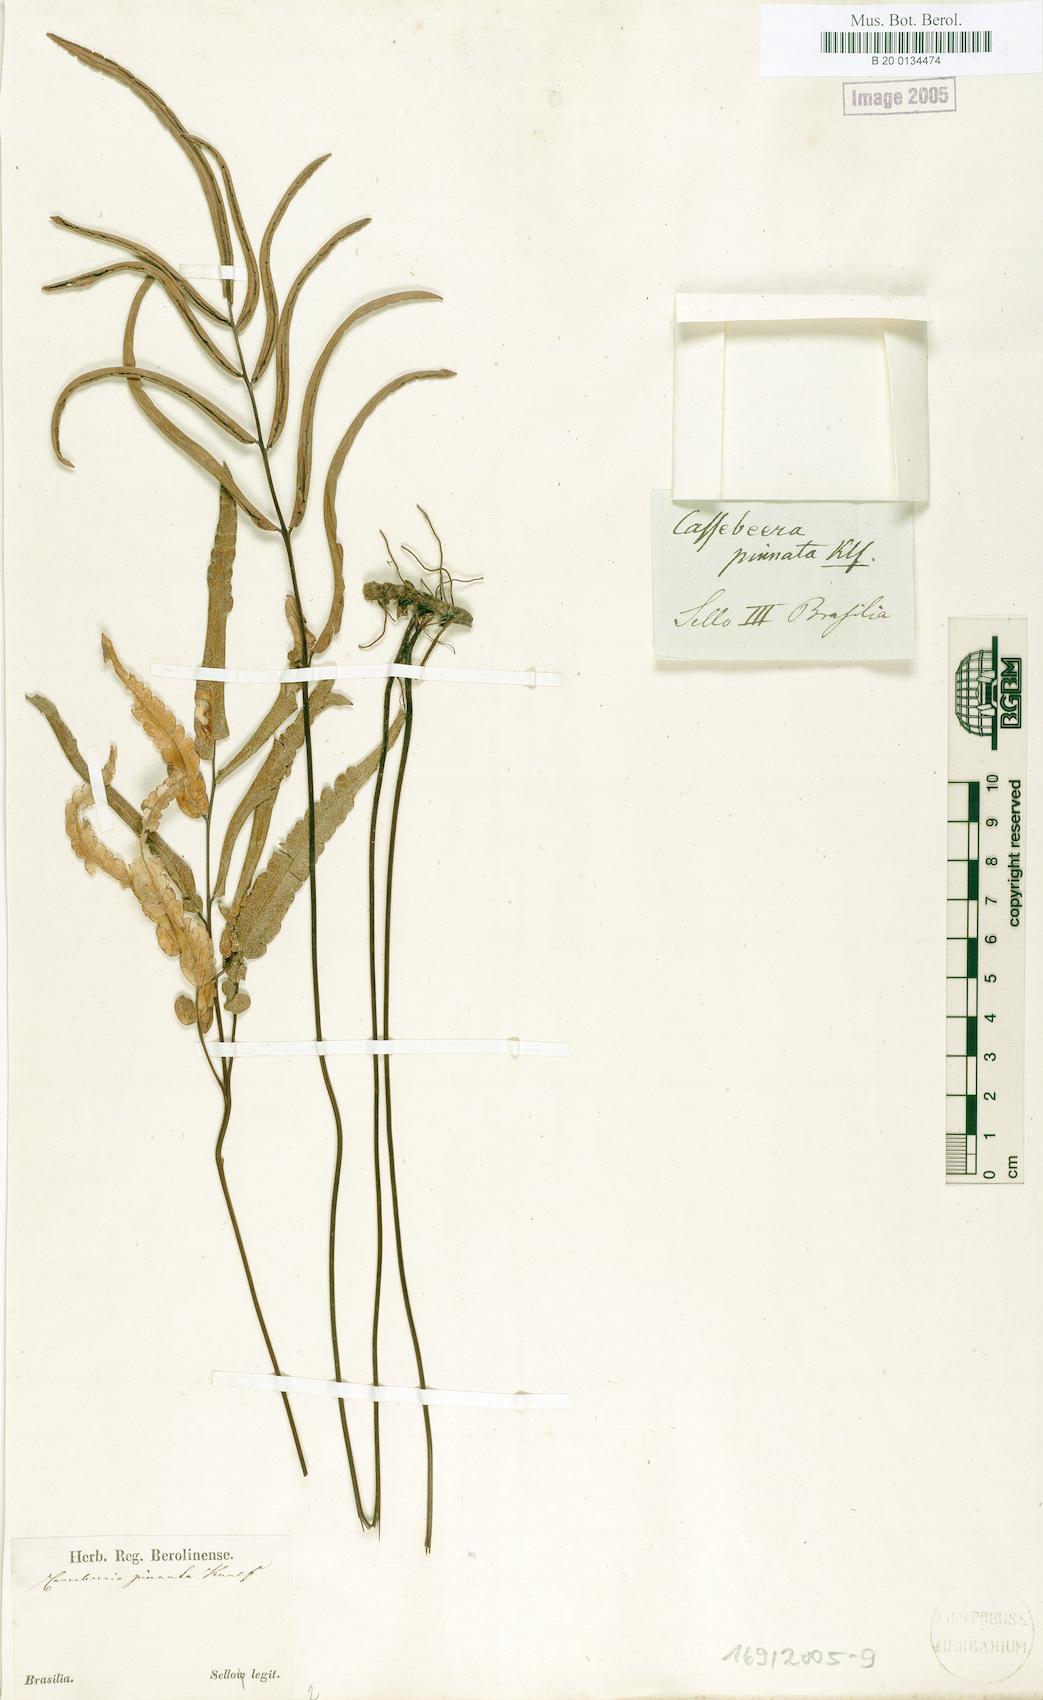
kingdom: Plantae
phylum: Tracheophyta
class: Polypodiopsida
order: Polypodiales
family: Pteridaceae
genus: Ormopteris
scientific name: Ormopteris pinnata
